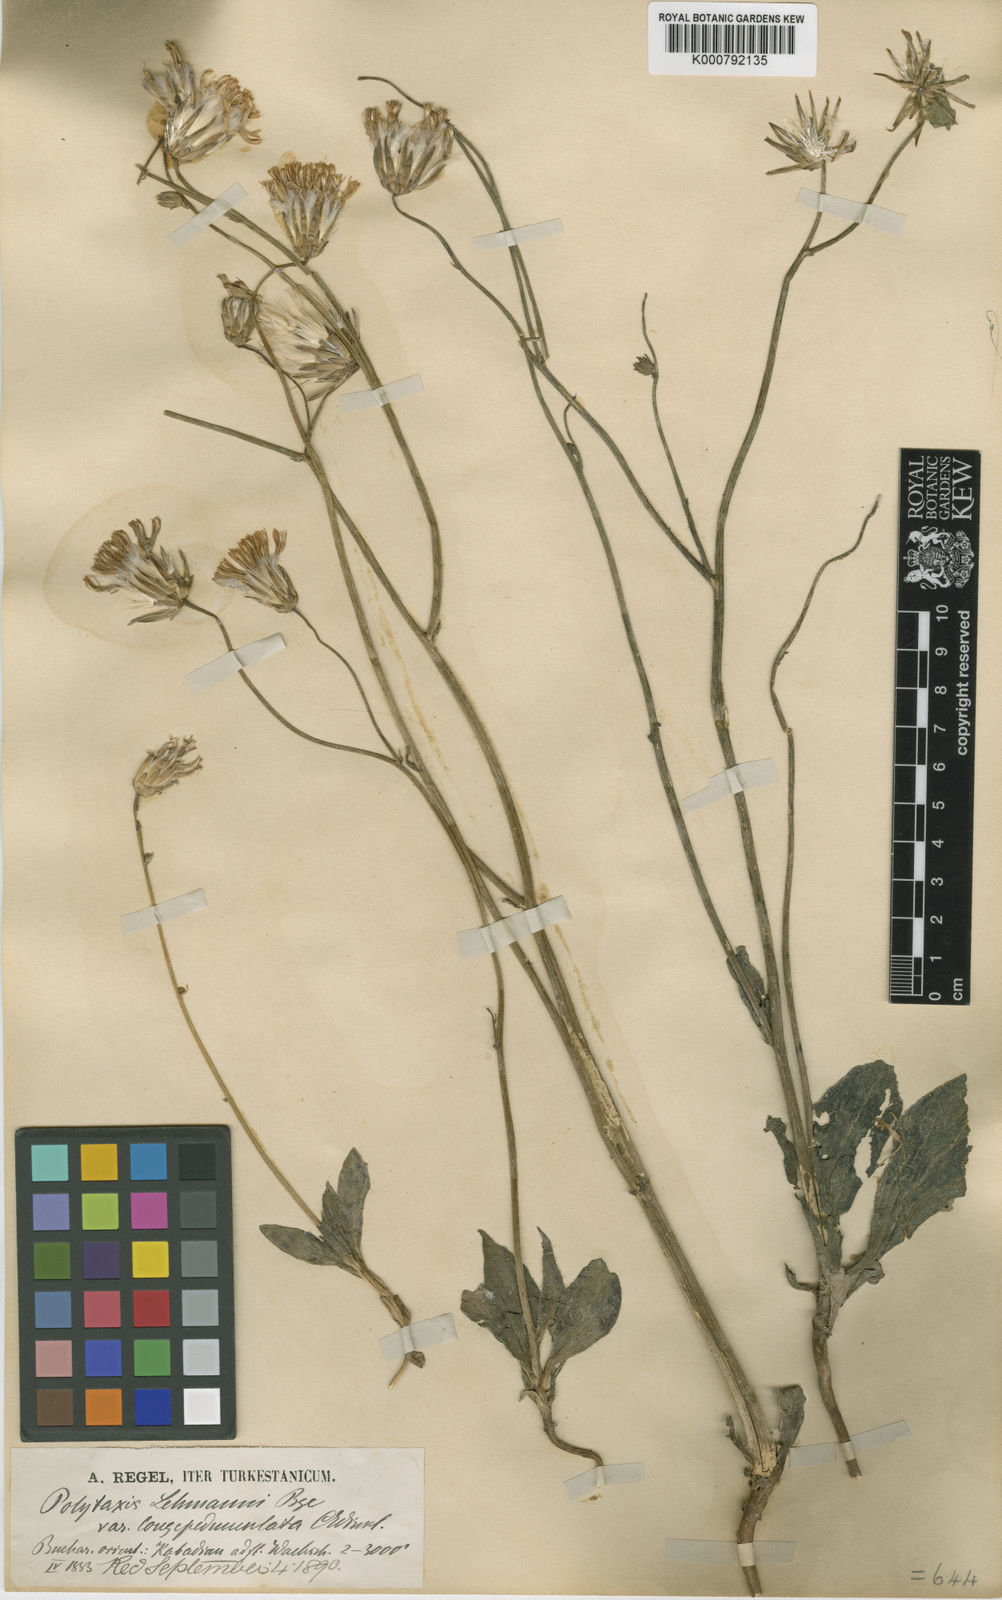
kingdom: Plantae
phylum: Tracheophyta
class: Magnoliopsida
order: Asterales
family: Asteraceae
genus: Jurinea
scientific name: Jurinea
